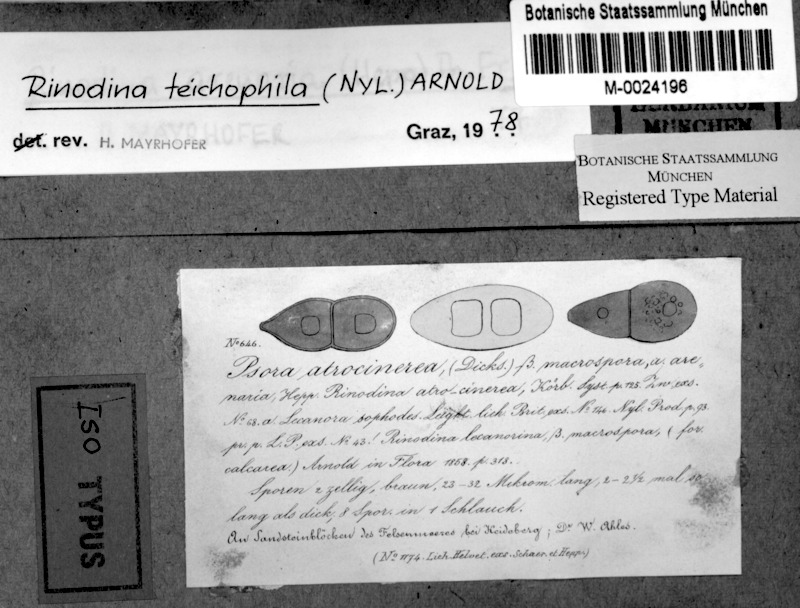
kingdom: Fungi
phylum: Ascomycota
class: Lecanoromycetes
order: Caliciales
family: Physciaceae
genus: Rinodina
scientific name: Rinodina tephraspis
